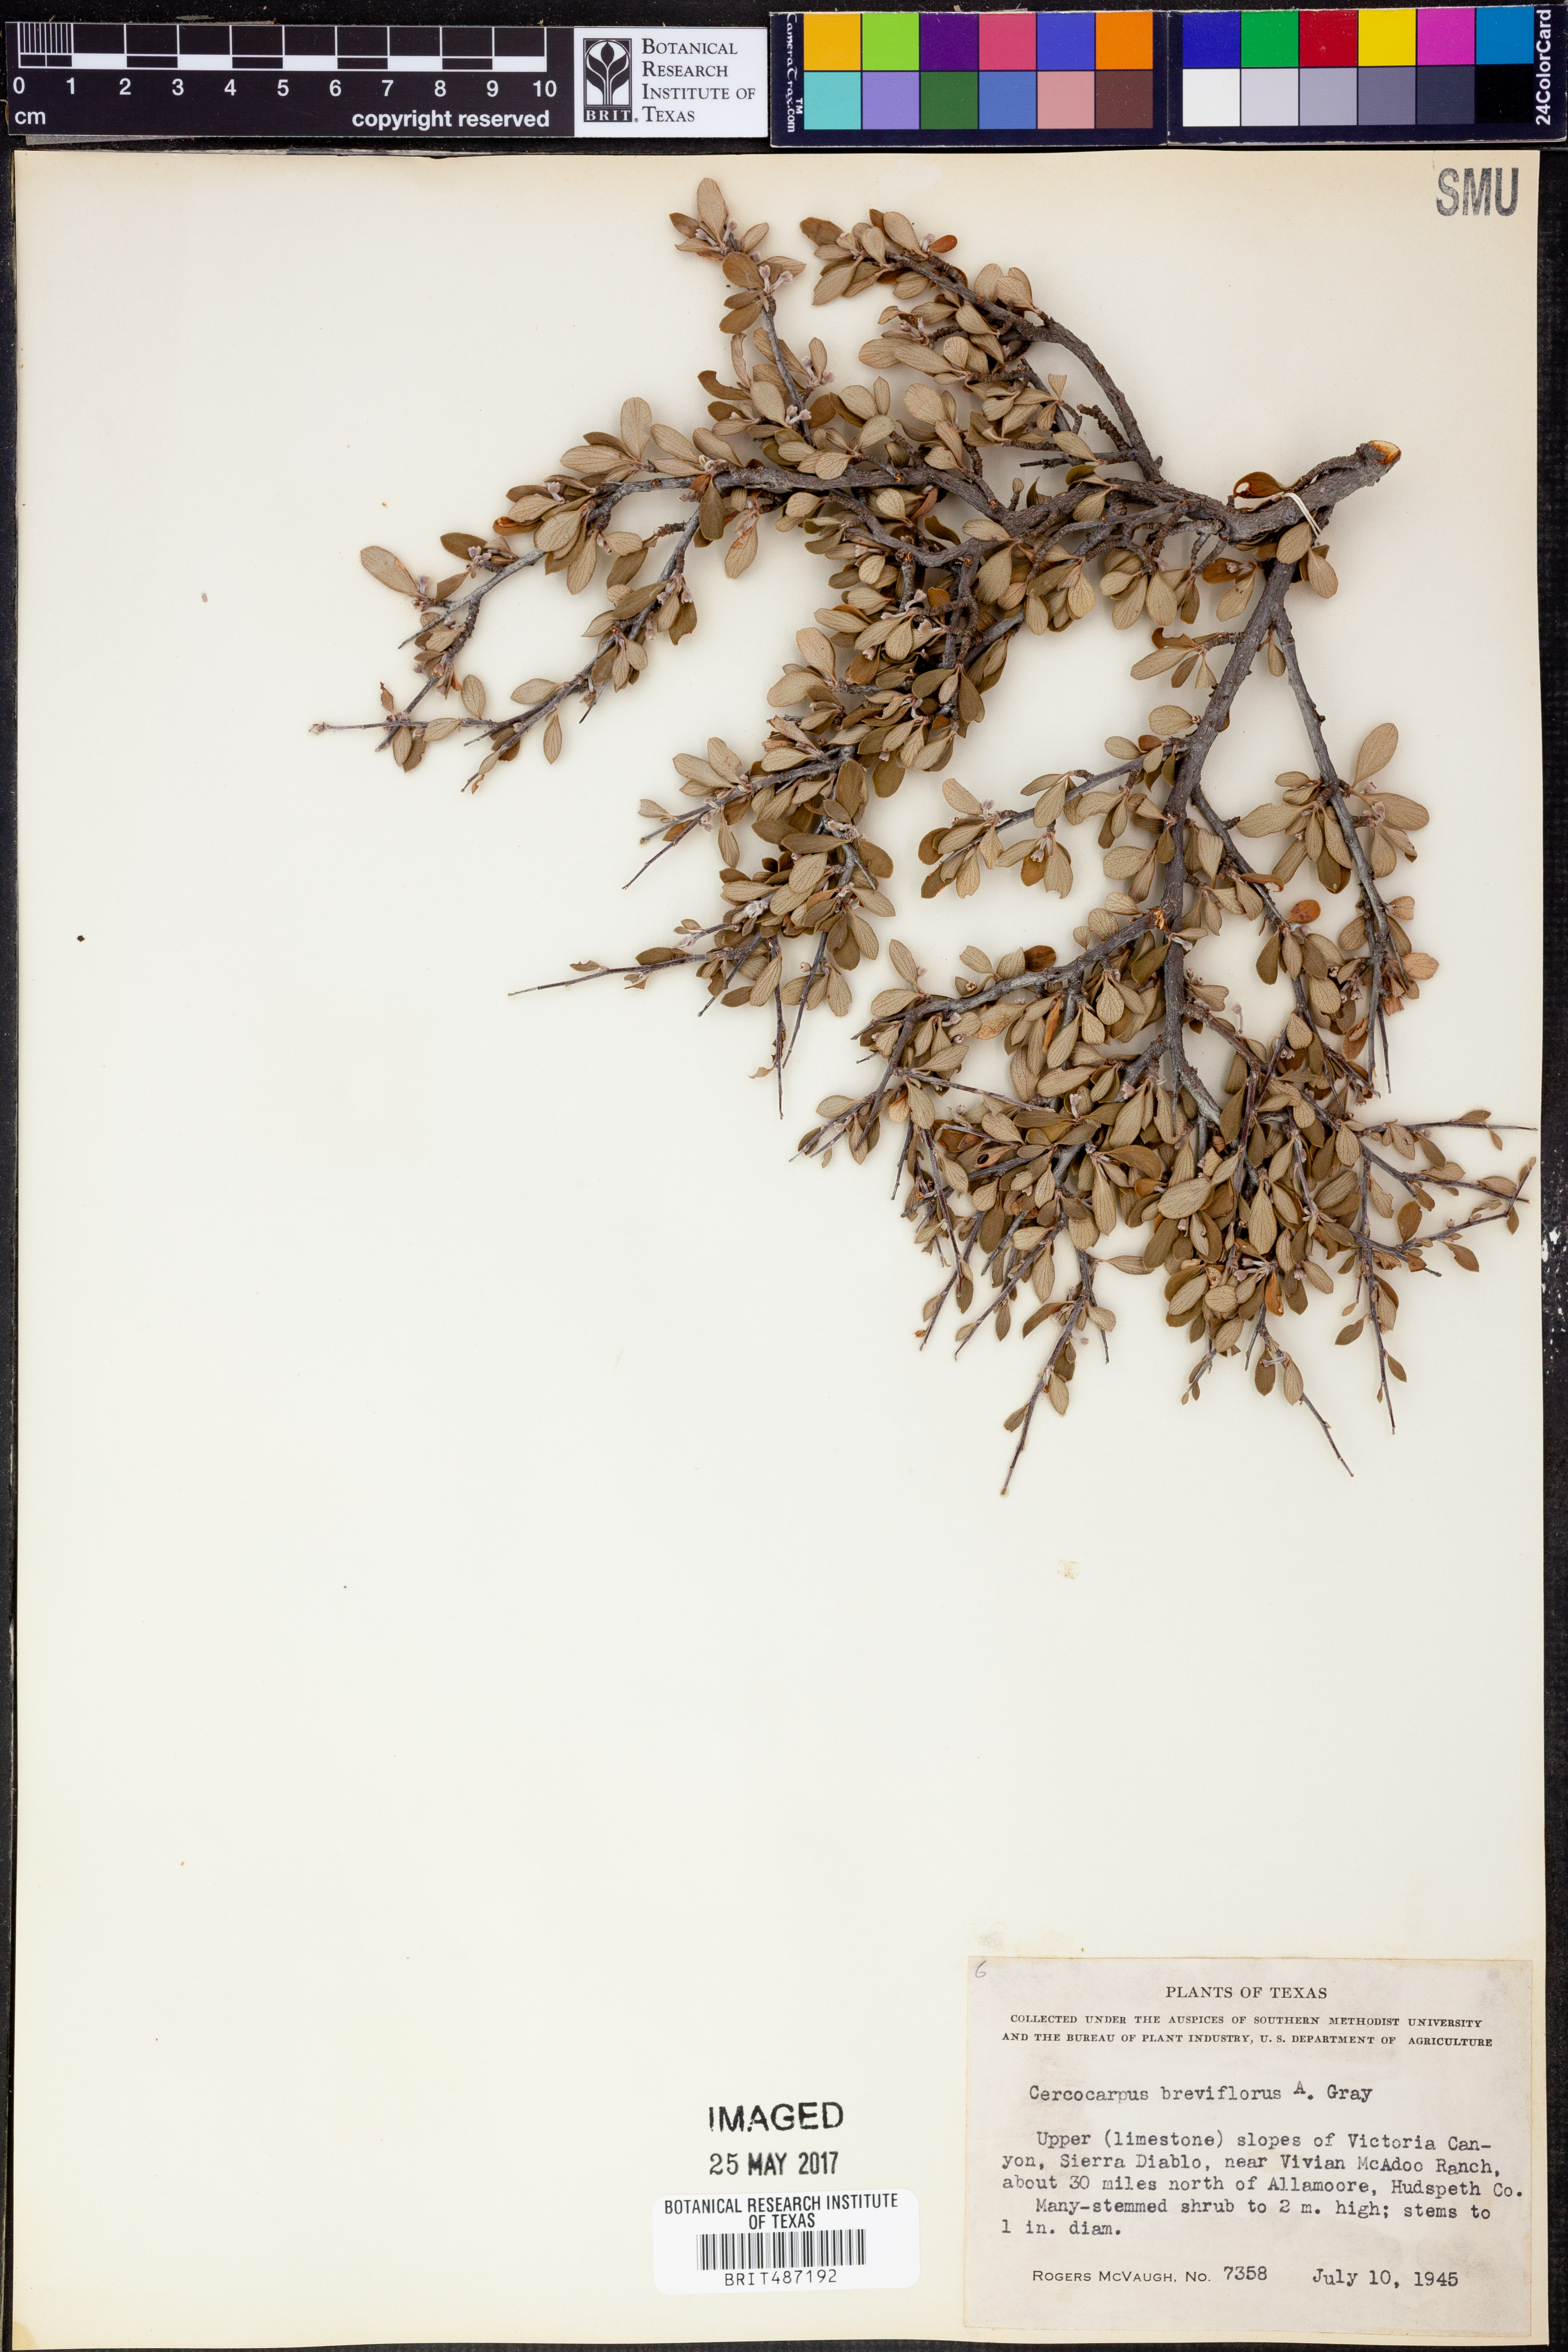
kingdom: Plantae
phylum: Tracheophyta
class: Magnoliopsida
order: Rosales
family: Rosaceae
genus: Cercocarpus
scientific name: Cercocarpus breviflorus
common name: Wright's mountain-mahogany
